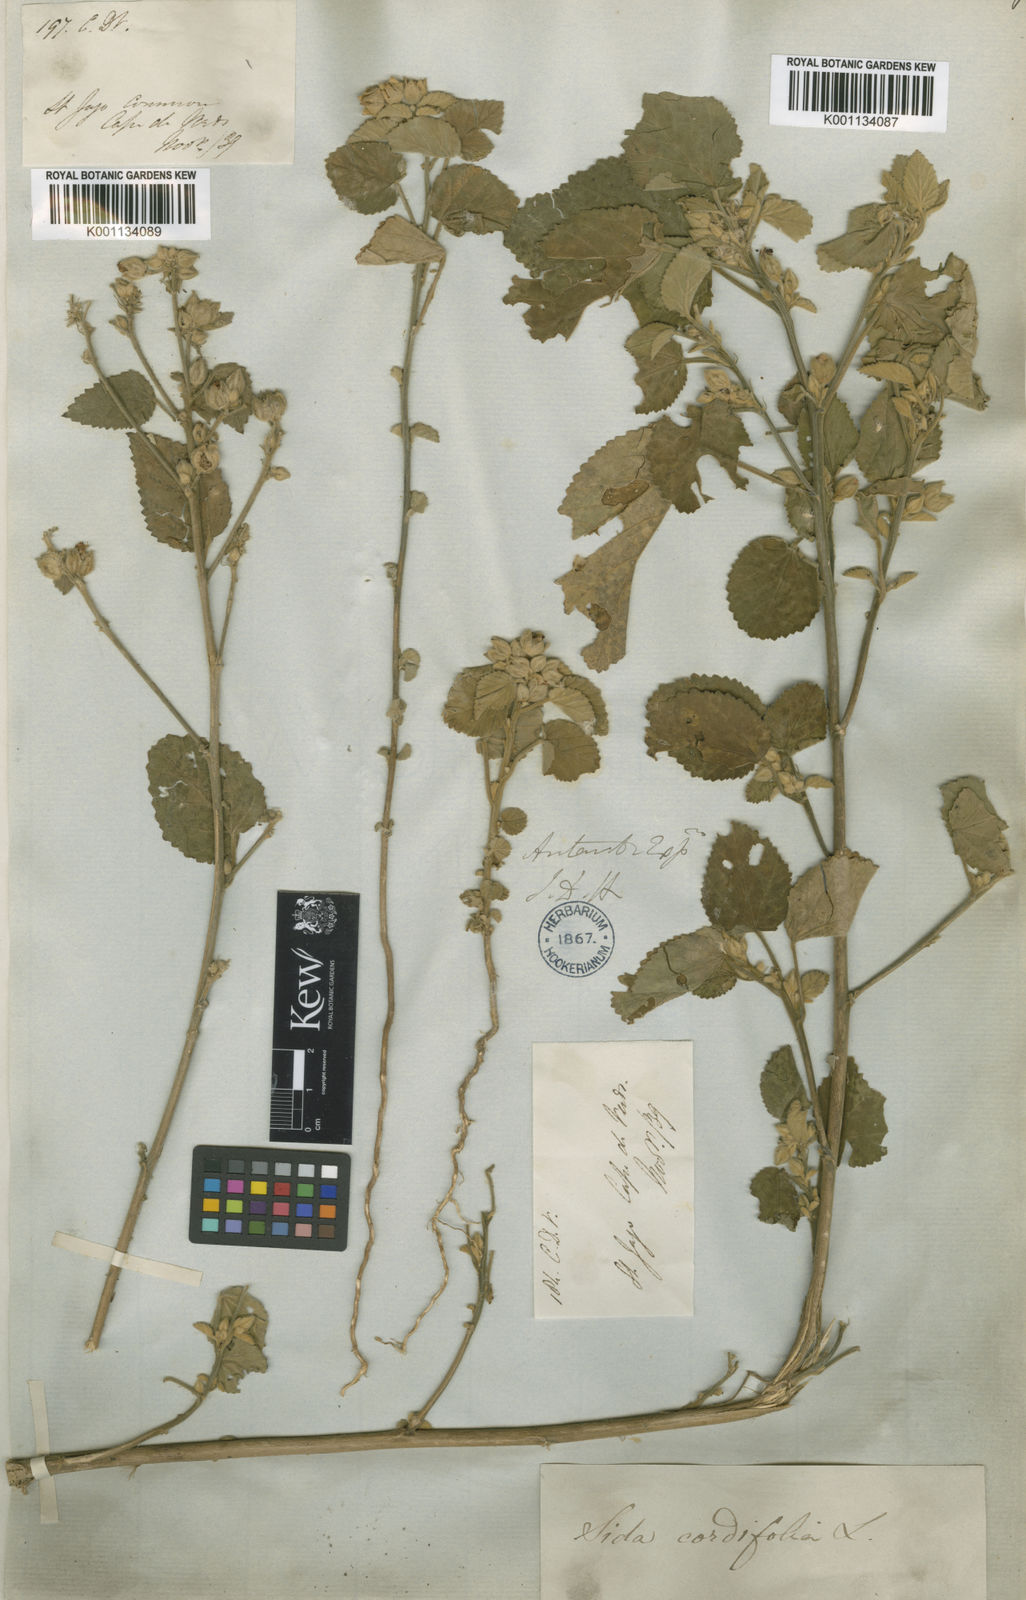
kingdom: Plantae
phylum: Tracheophyta
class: Magnoliopsida
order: Malvales
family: Malvaceae
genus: Sida
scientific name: Sida acuta
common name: Common wireweed
